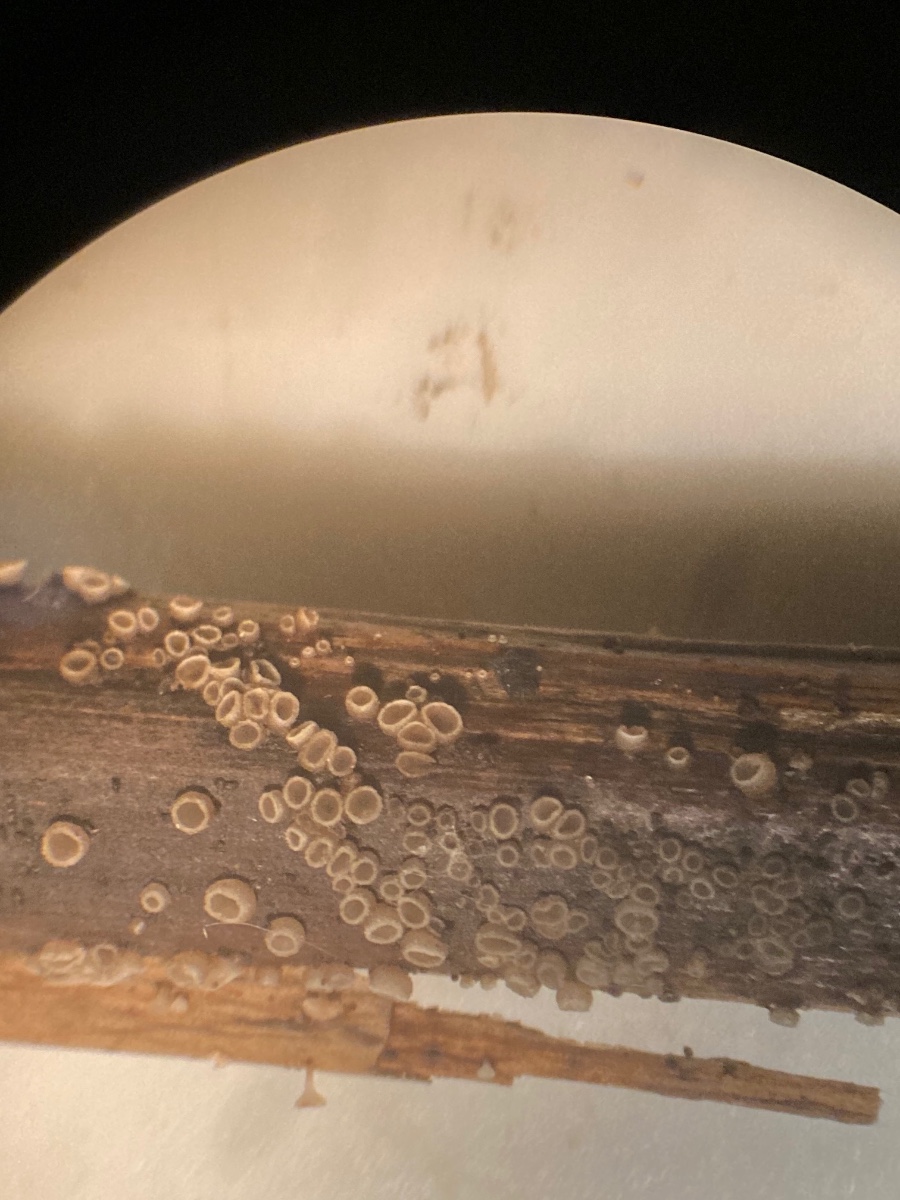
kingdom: Fungi
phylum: Ascomycota
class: Leotiomycetes
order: Helotiales
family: Ploettnerulaceae
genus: Pyrenopeziza
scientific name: Pyrenopeziza millegrana
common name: mjødurt-kerneskive
